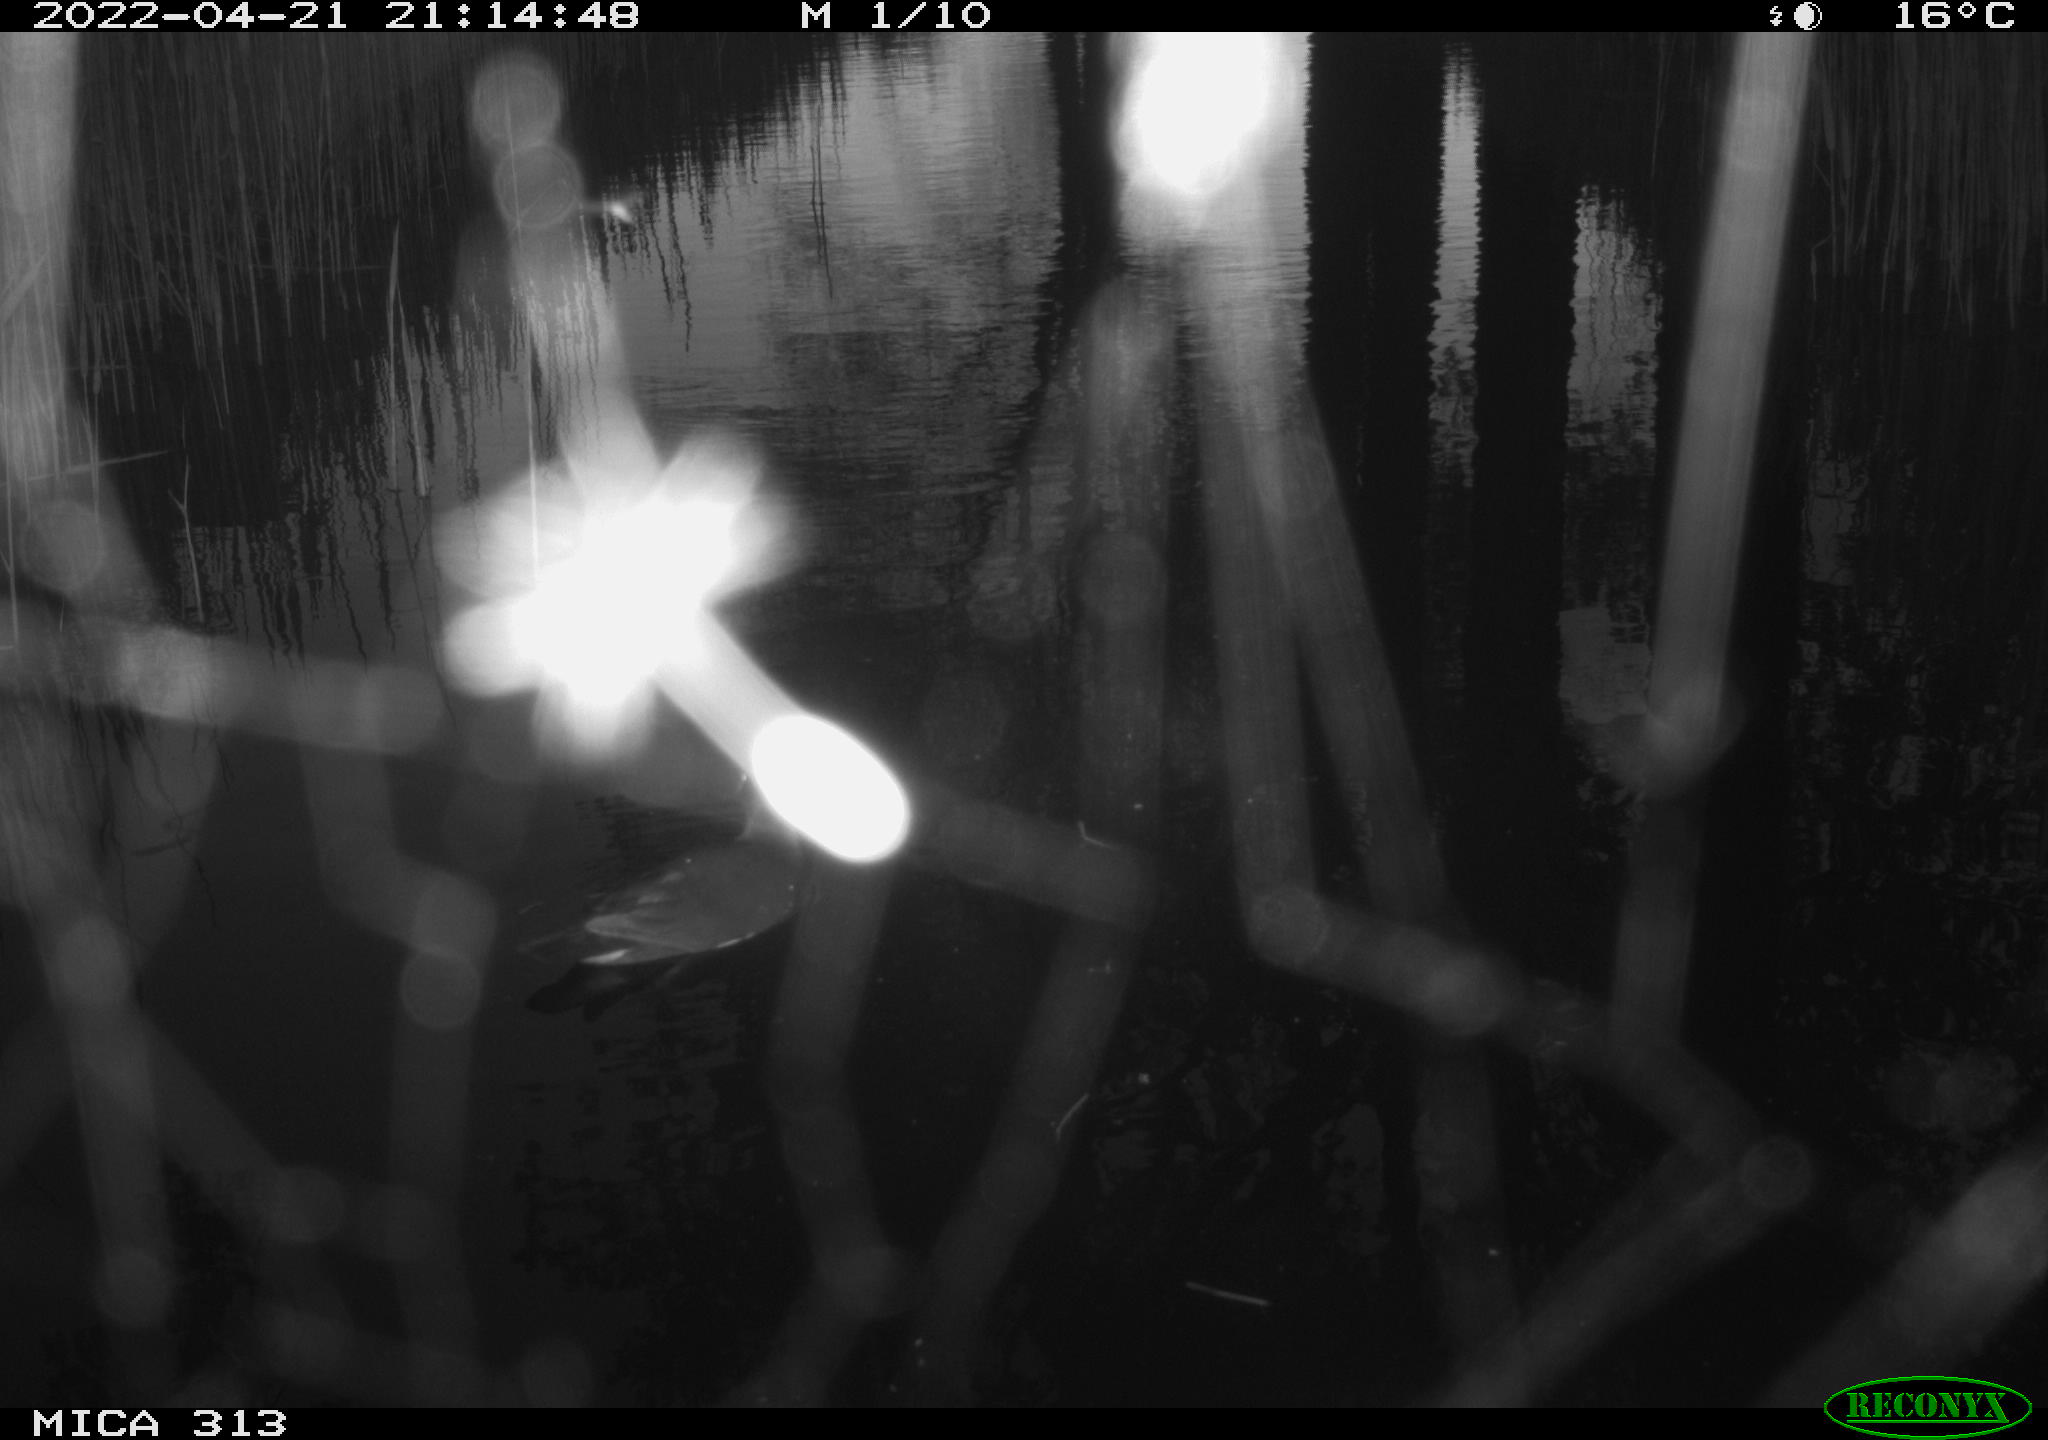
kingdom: Animalia
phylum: Chordata
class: Aves
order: Gruiformes
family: Rallidae
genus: Fulica
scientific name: Fulica atra
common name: Eurasian coot
